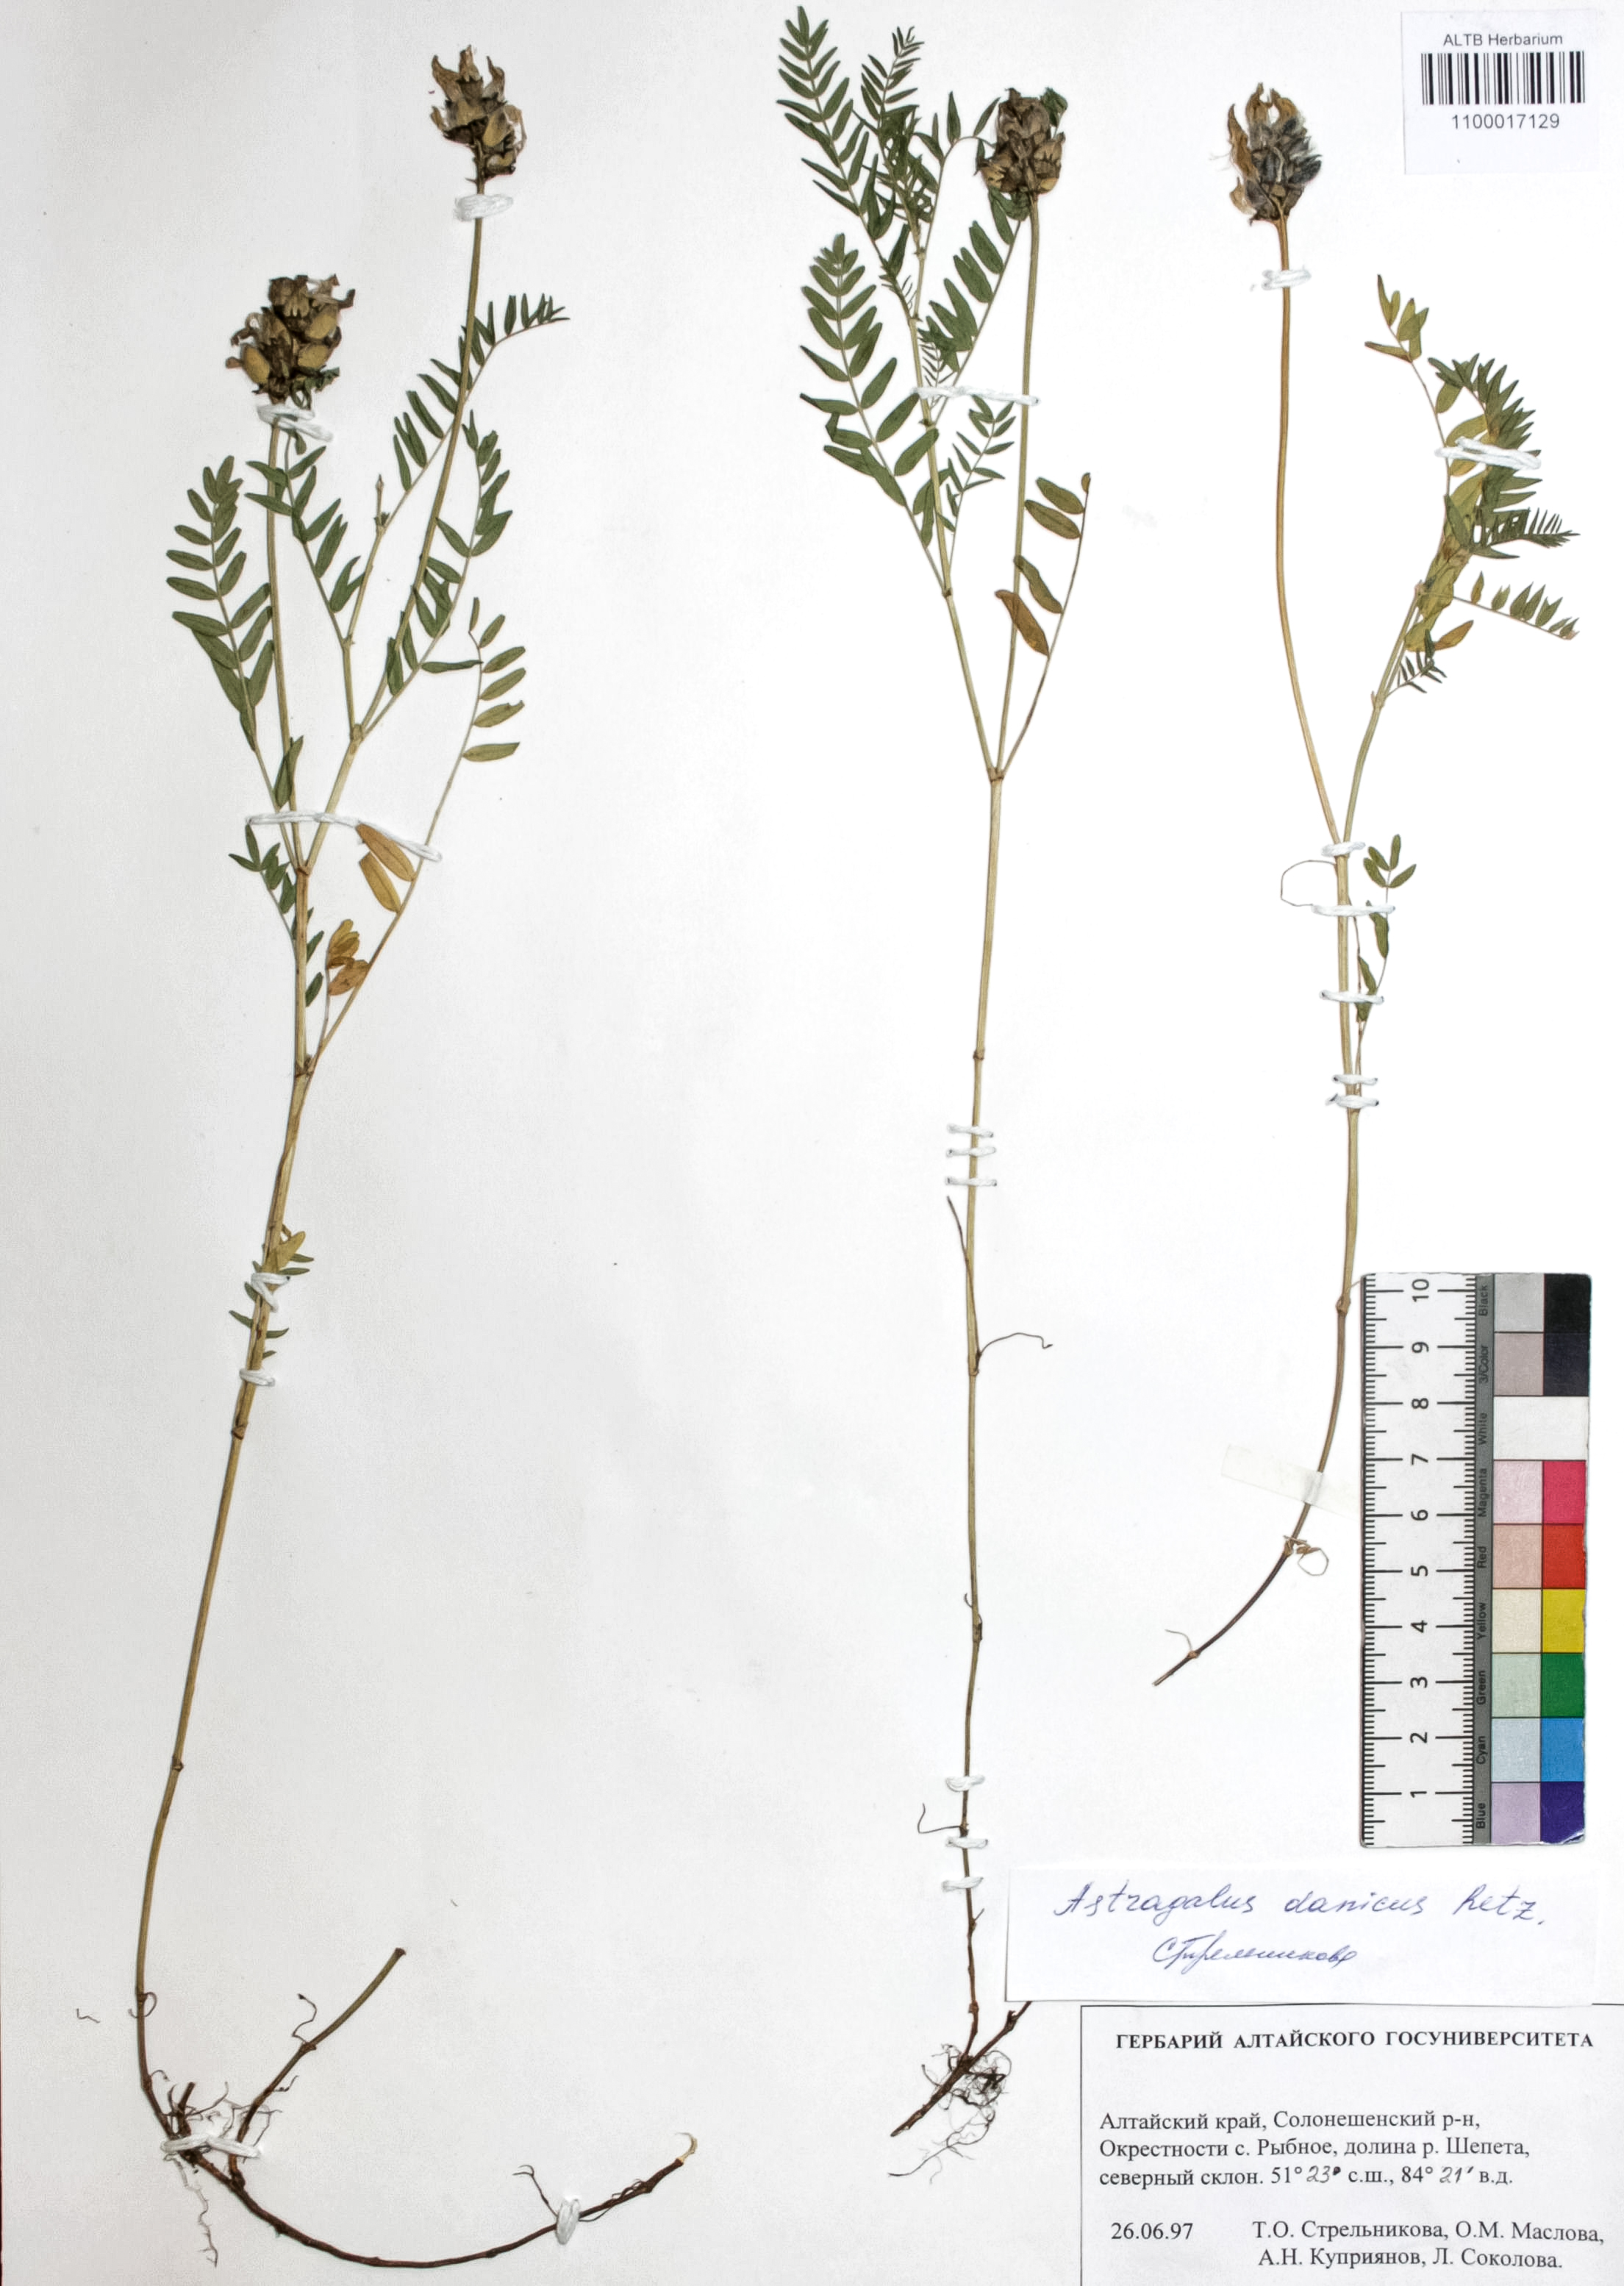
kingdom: Plantae
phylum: Tracheophyta
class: Magnoliopsida
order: Fabales
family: Fabaceae
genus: Astragalus
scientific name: Astragalus danicus
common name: Purple milk-vetch
